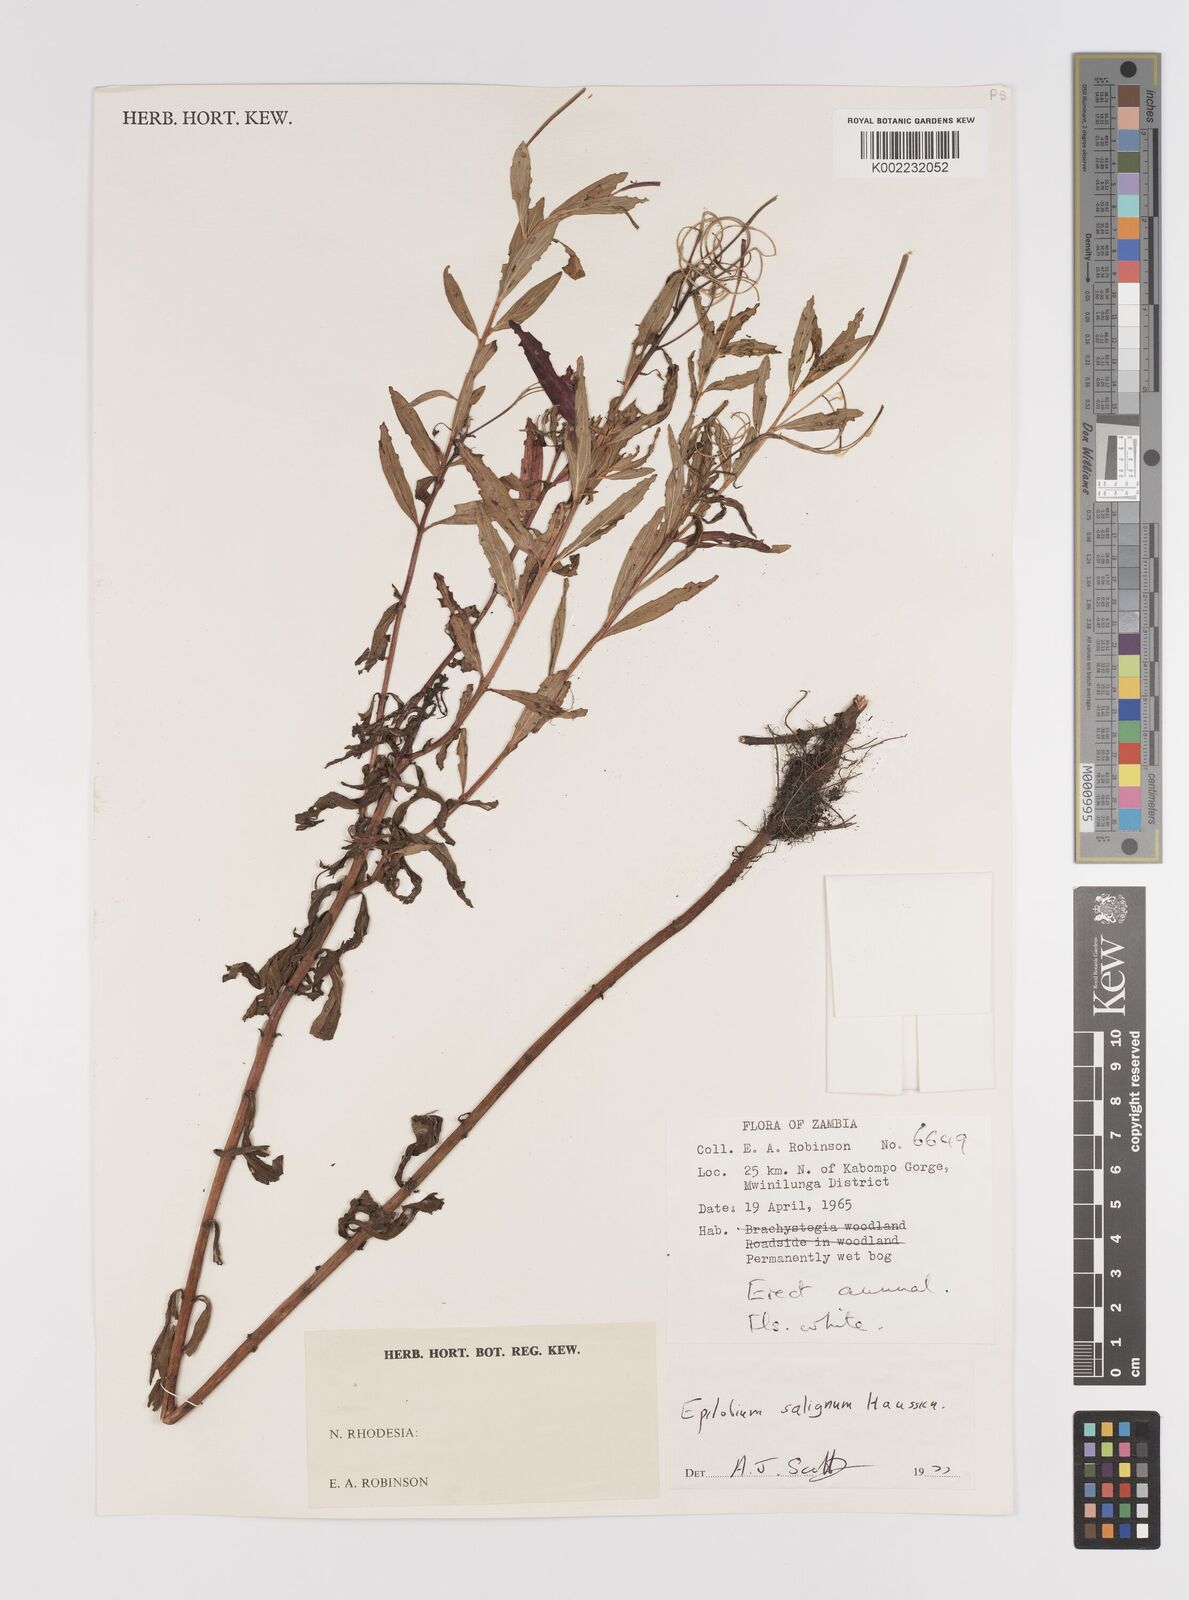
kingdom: Plantae
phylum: Tracheophyta
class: Magnoliopsida
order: Myrtales
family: Onagraceae
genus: Epilobium
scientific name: Epilobium salignum
